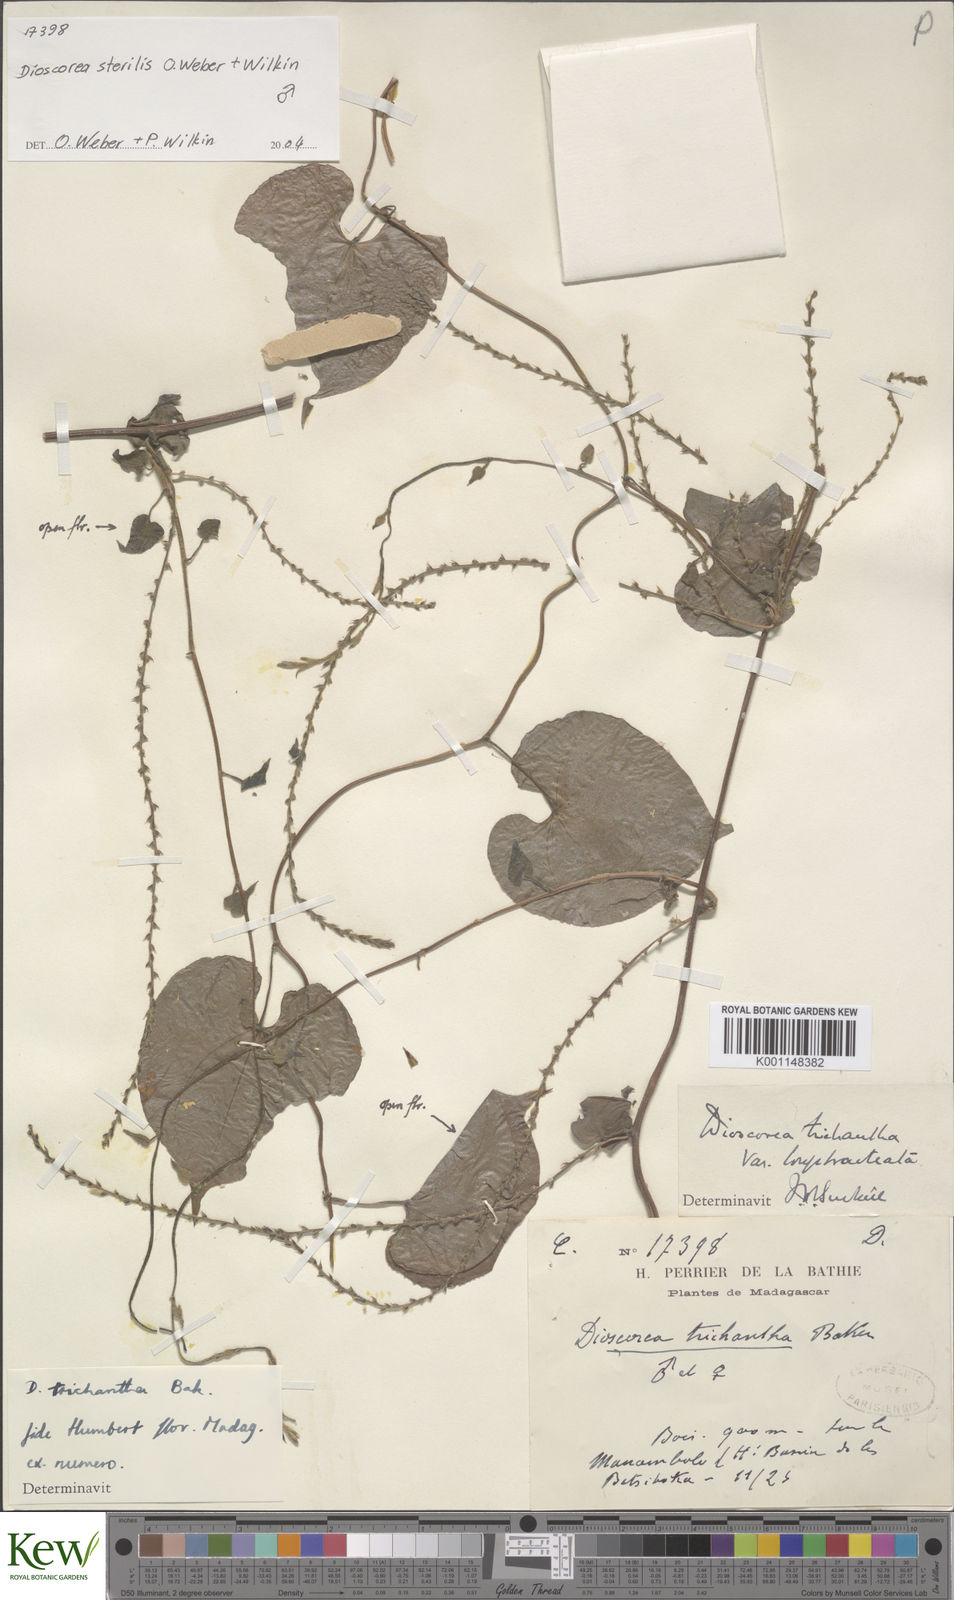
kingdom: Plantae
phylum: Tracheophyta
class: Liliopsida
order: Dioscoreales
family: Dioscoreaceae
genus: Dioscorea
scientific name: Dioscorea sterilis
